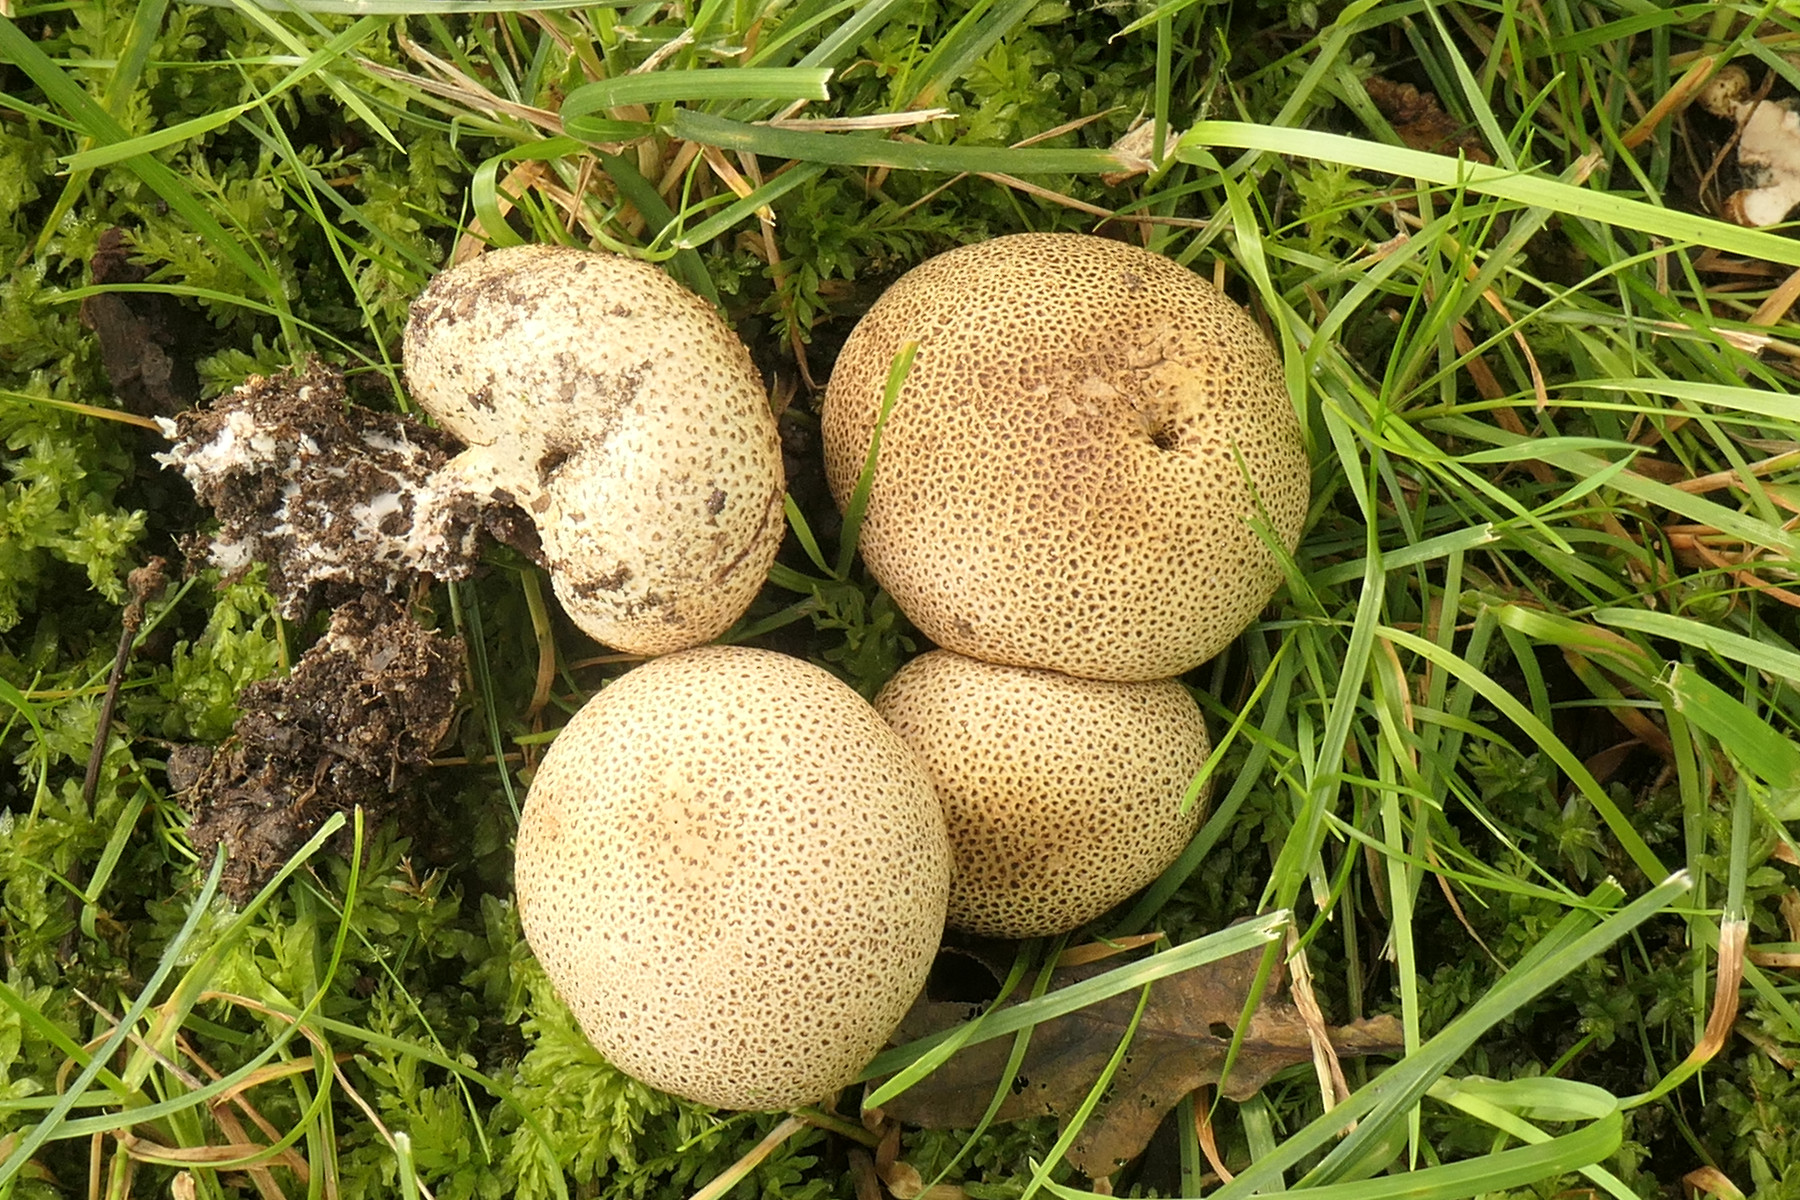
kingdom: Fungi
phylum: Basidiomycota
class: Agaricomycetes
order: Boletales
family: Sclerodermataceae
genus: Scleroderma
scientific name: Scleroderma areolatum
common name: plettet bruskbold
